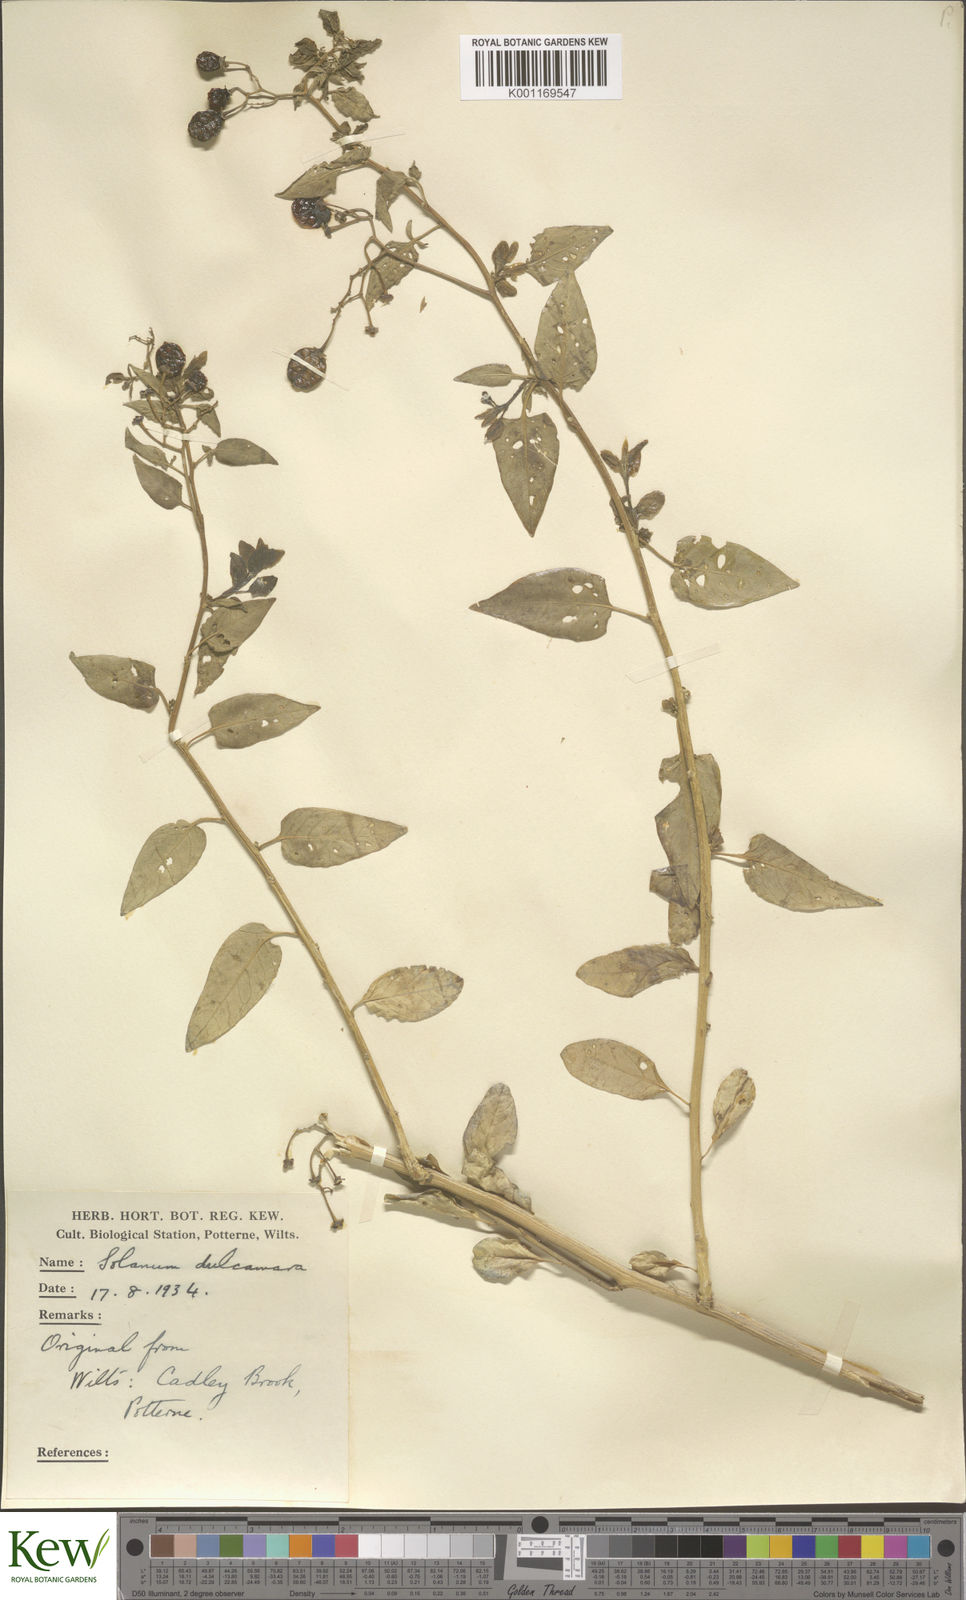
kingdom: Plantae
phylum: Tracheophyta
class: Magnoliopsida
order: Solanales
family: Solanaceae
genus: Solanum
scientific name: Solanum dulcamara
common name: Climbing nightshade
